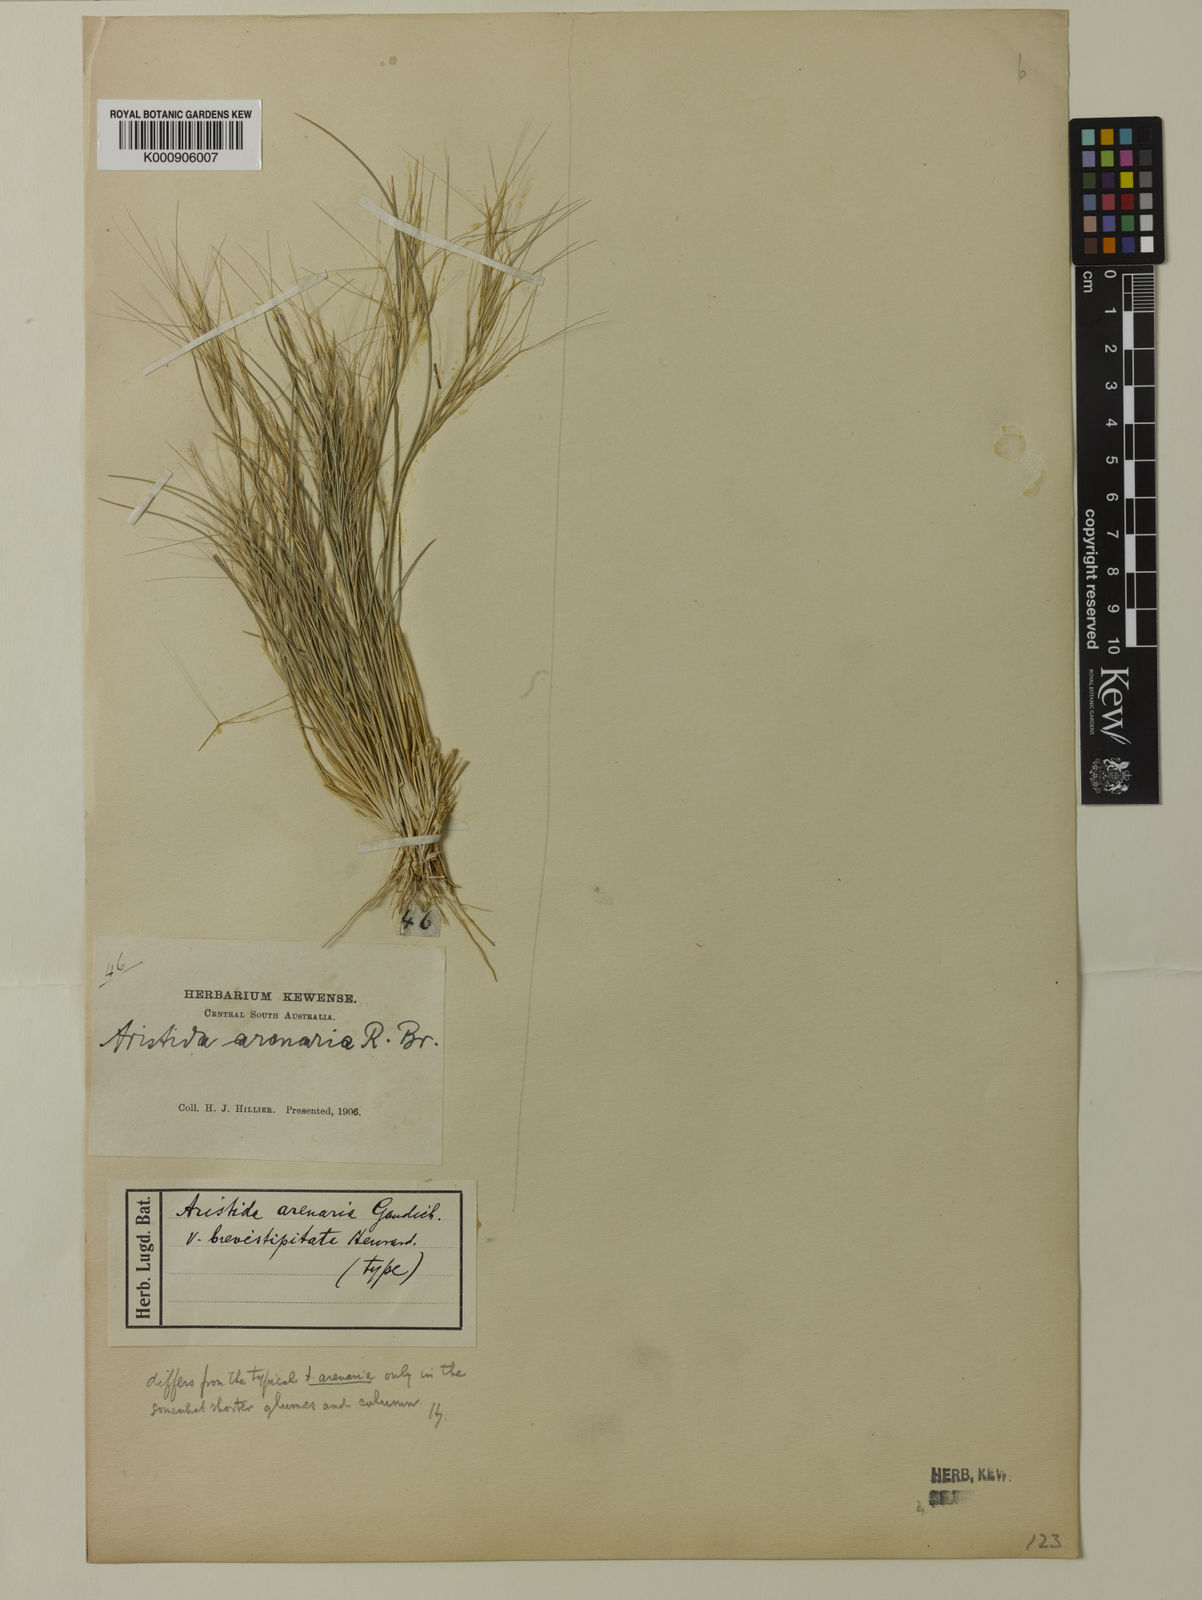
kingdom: Plantae
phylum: Tracheophyta
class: Liliopsida
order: Poales
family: Poaceae
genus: Aristida
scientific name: Aristida contorta
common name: Bunch kerosene grass
